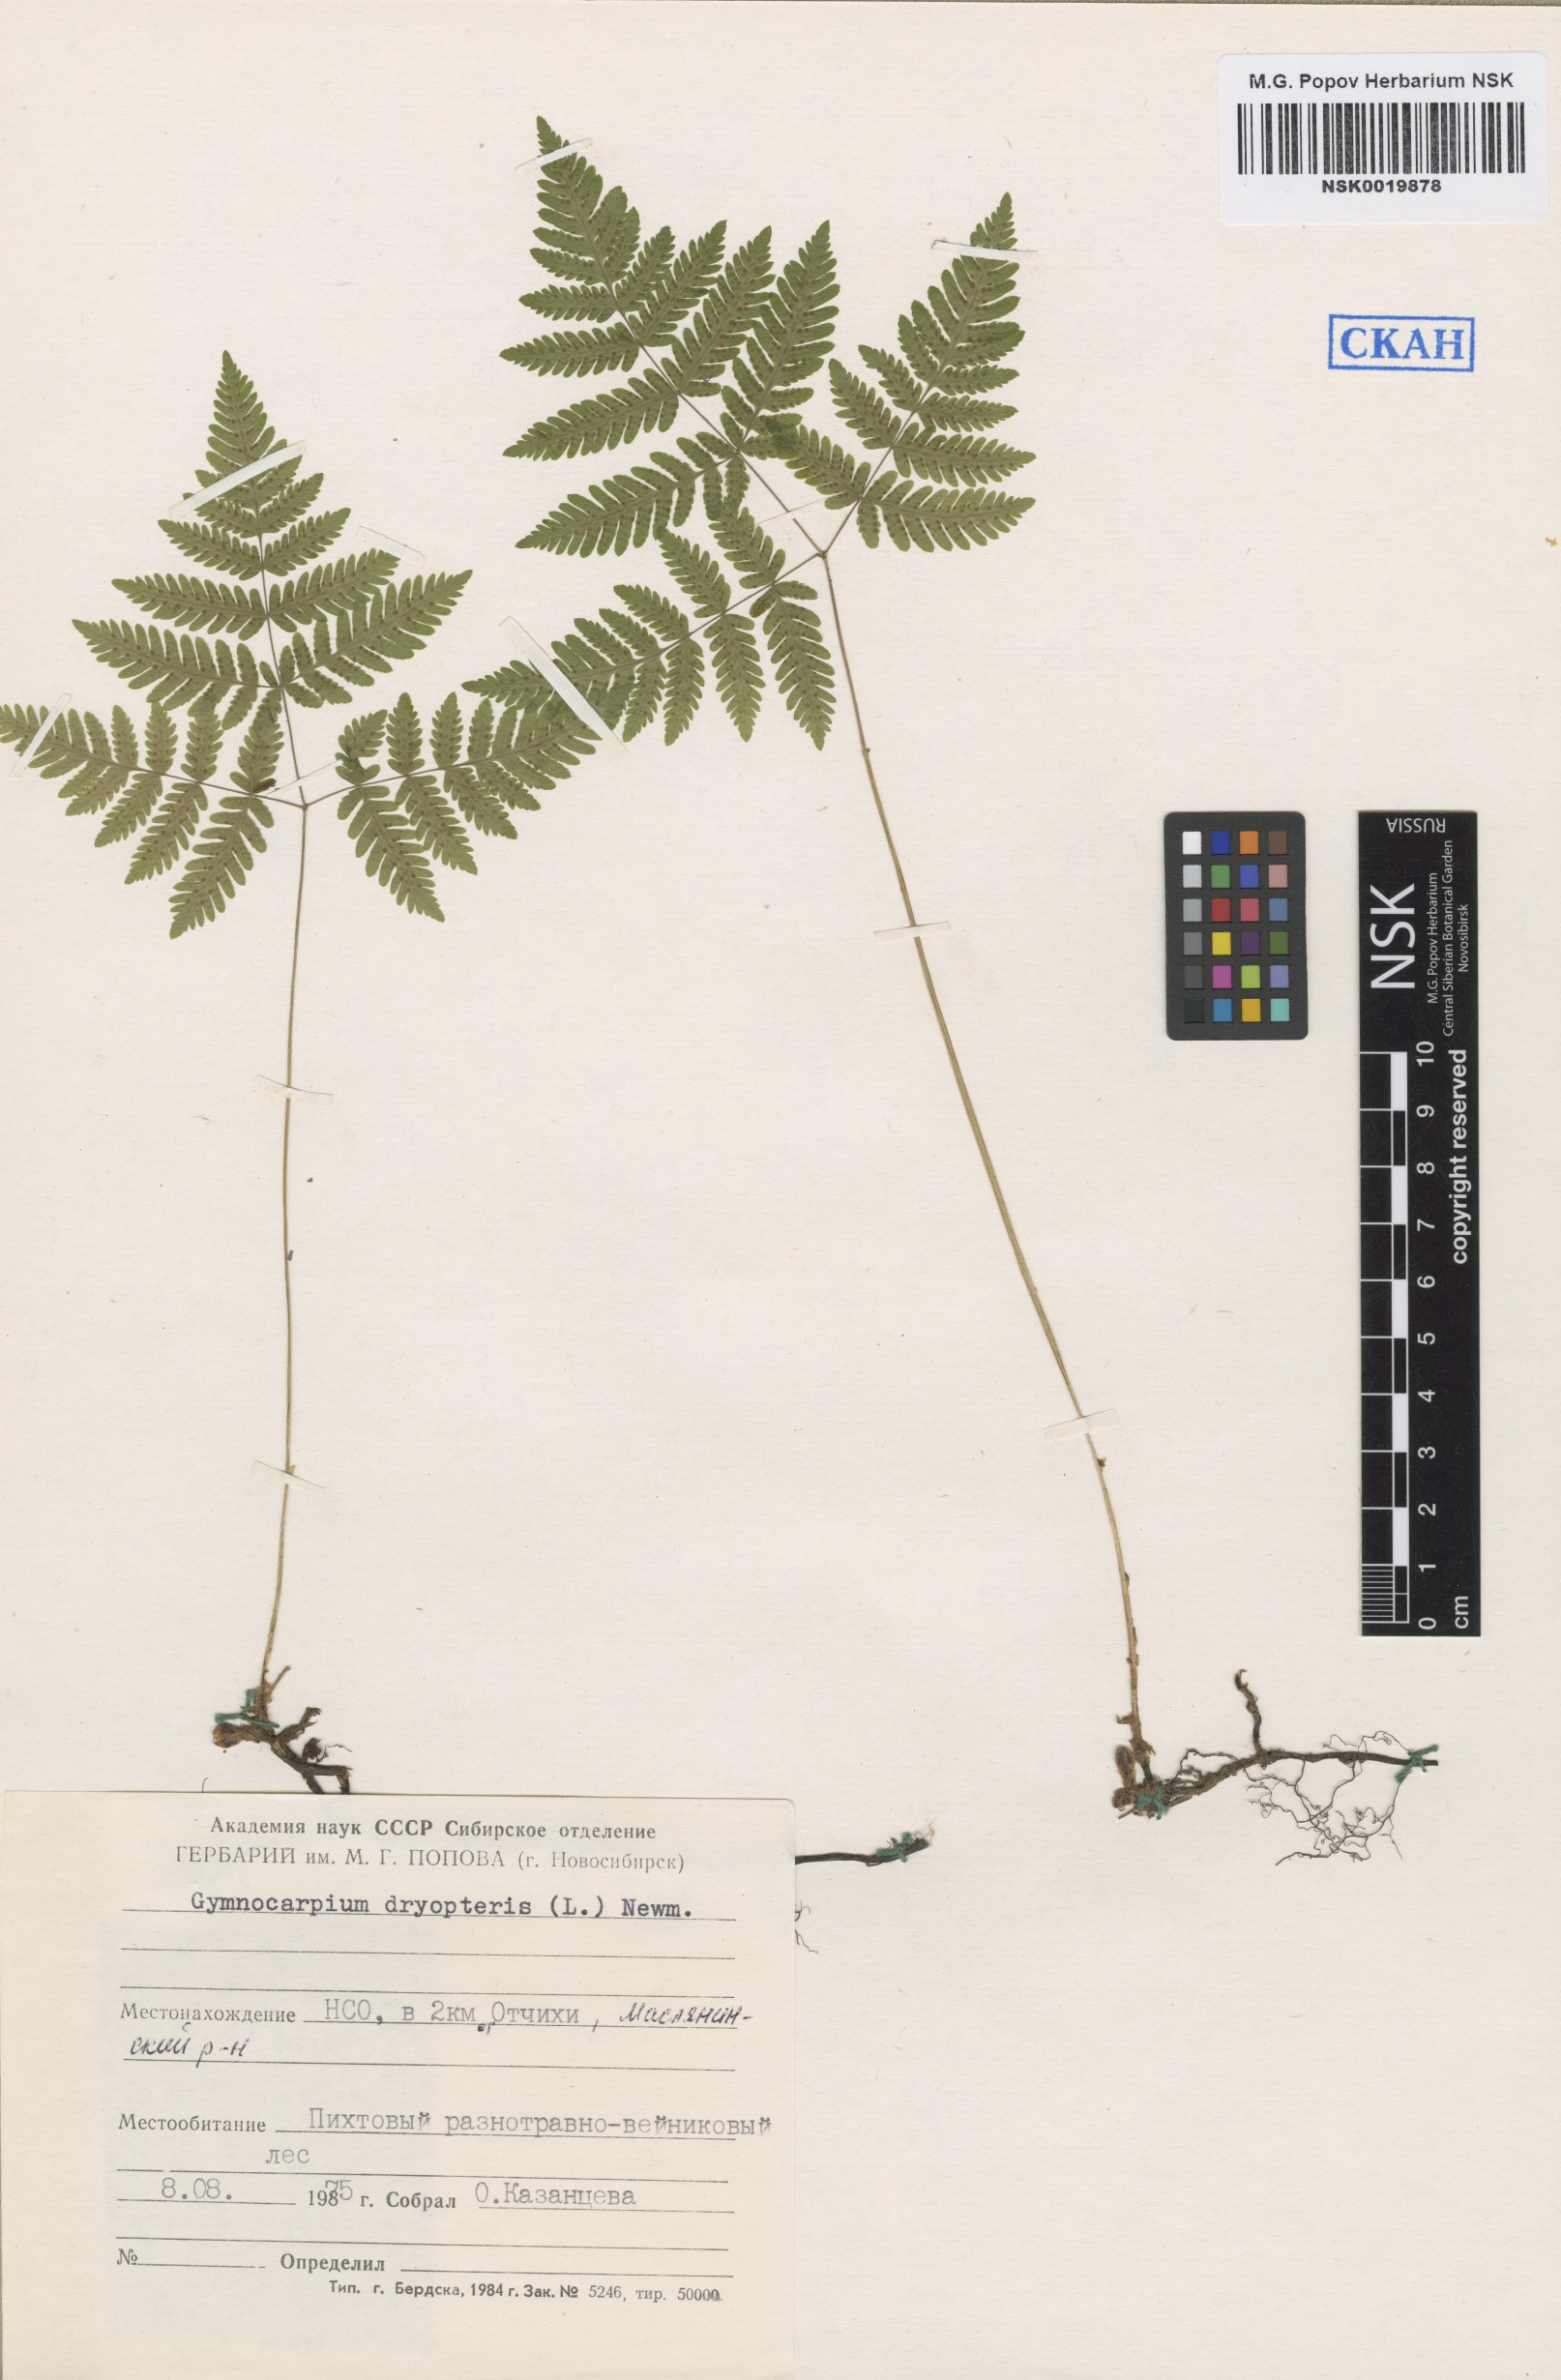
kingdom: Plantae
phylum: Tracheophyta
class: Polypodiopsida
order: Polypodiales
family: Cystopteridaceae
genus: Gymnocarpium
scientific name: Gymnocarpium dryopteris
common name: Oak fern
